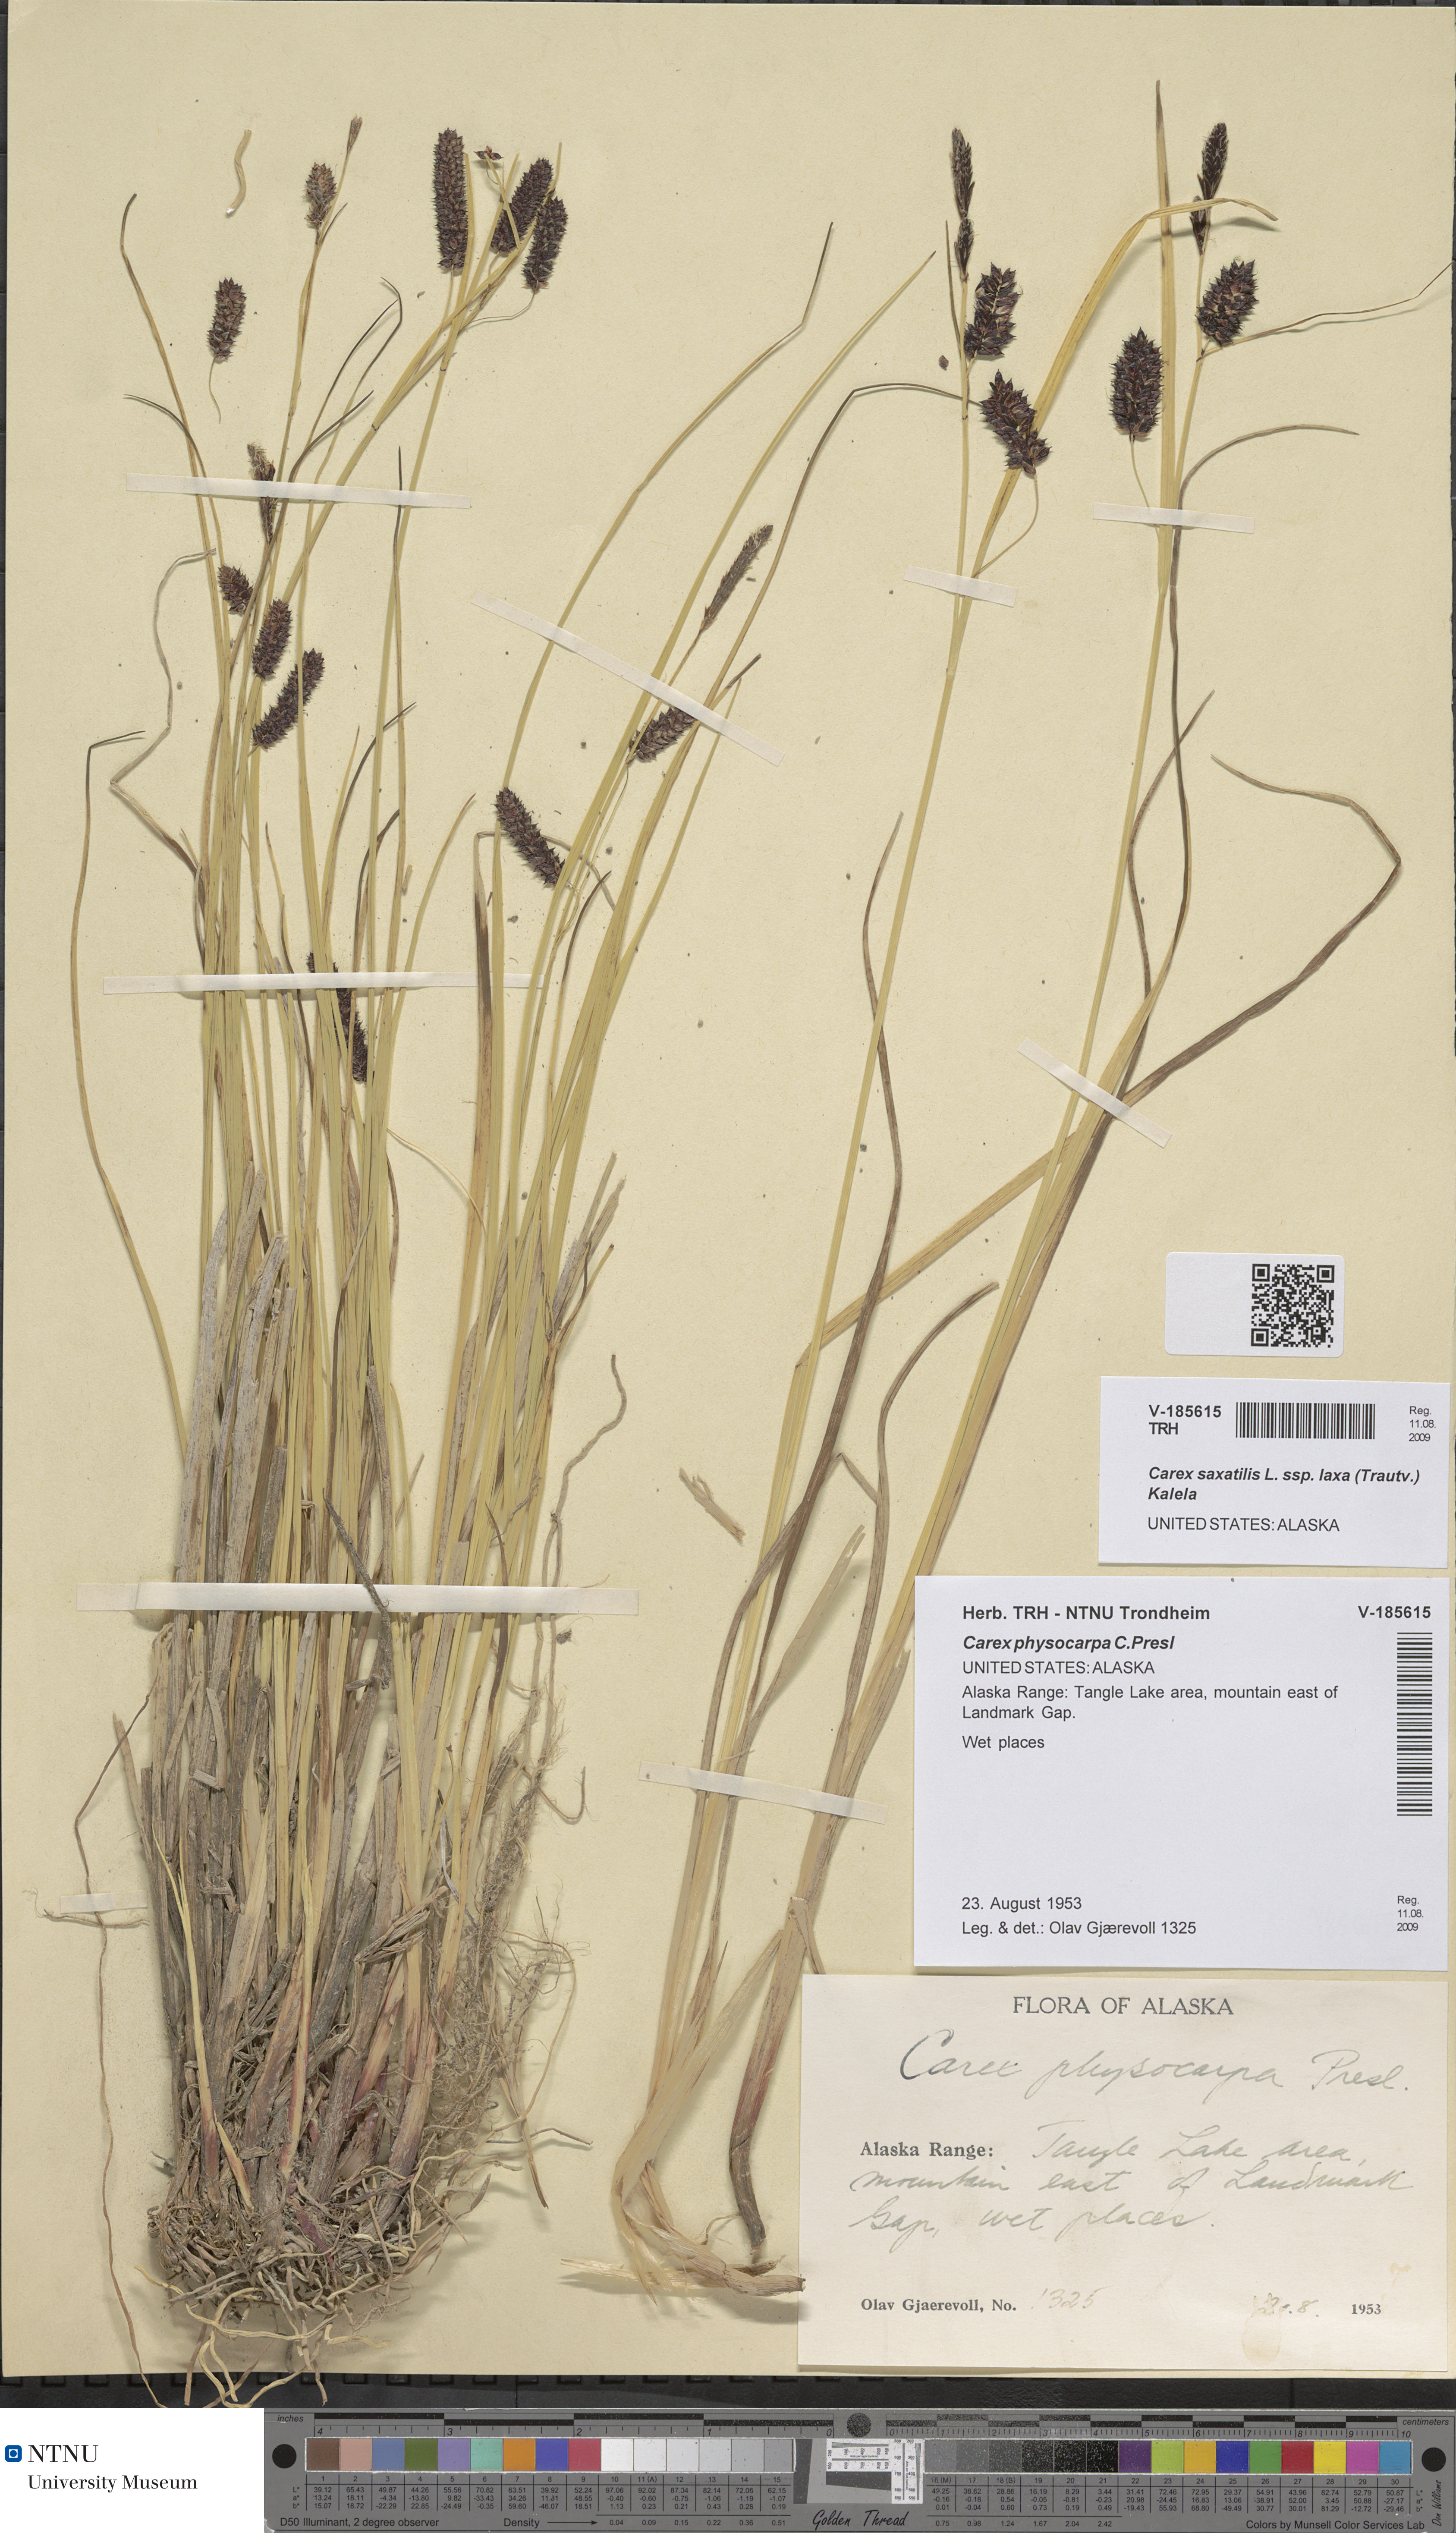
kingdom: Plantae
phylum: Tracheophyta
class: Liliopsida
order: Poales
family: Cyperaceae
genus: Carex
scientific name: Carex saxatilis
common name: Russet sedge
